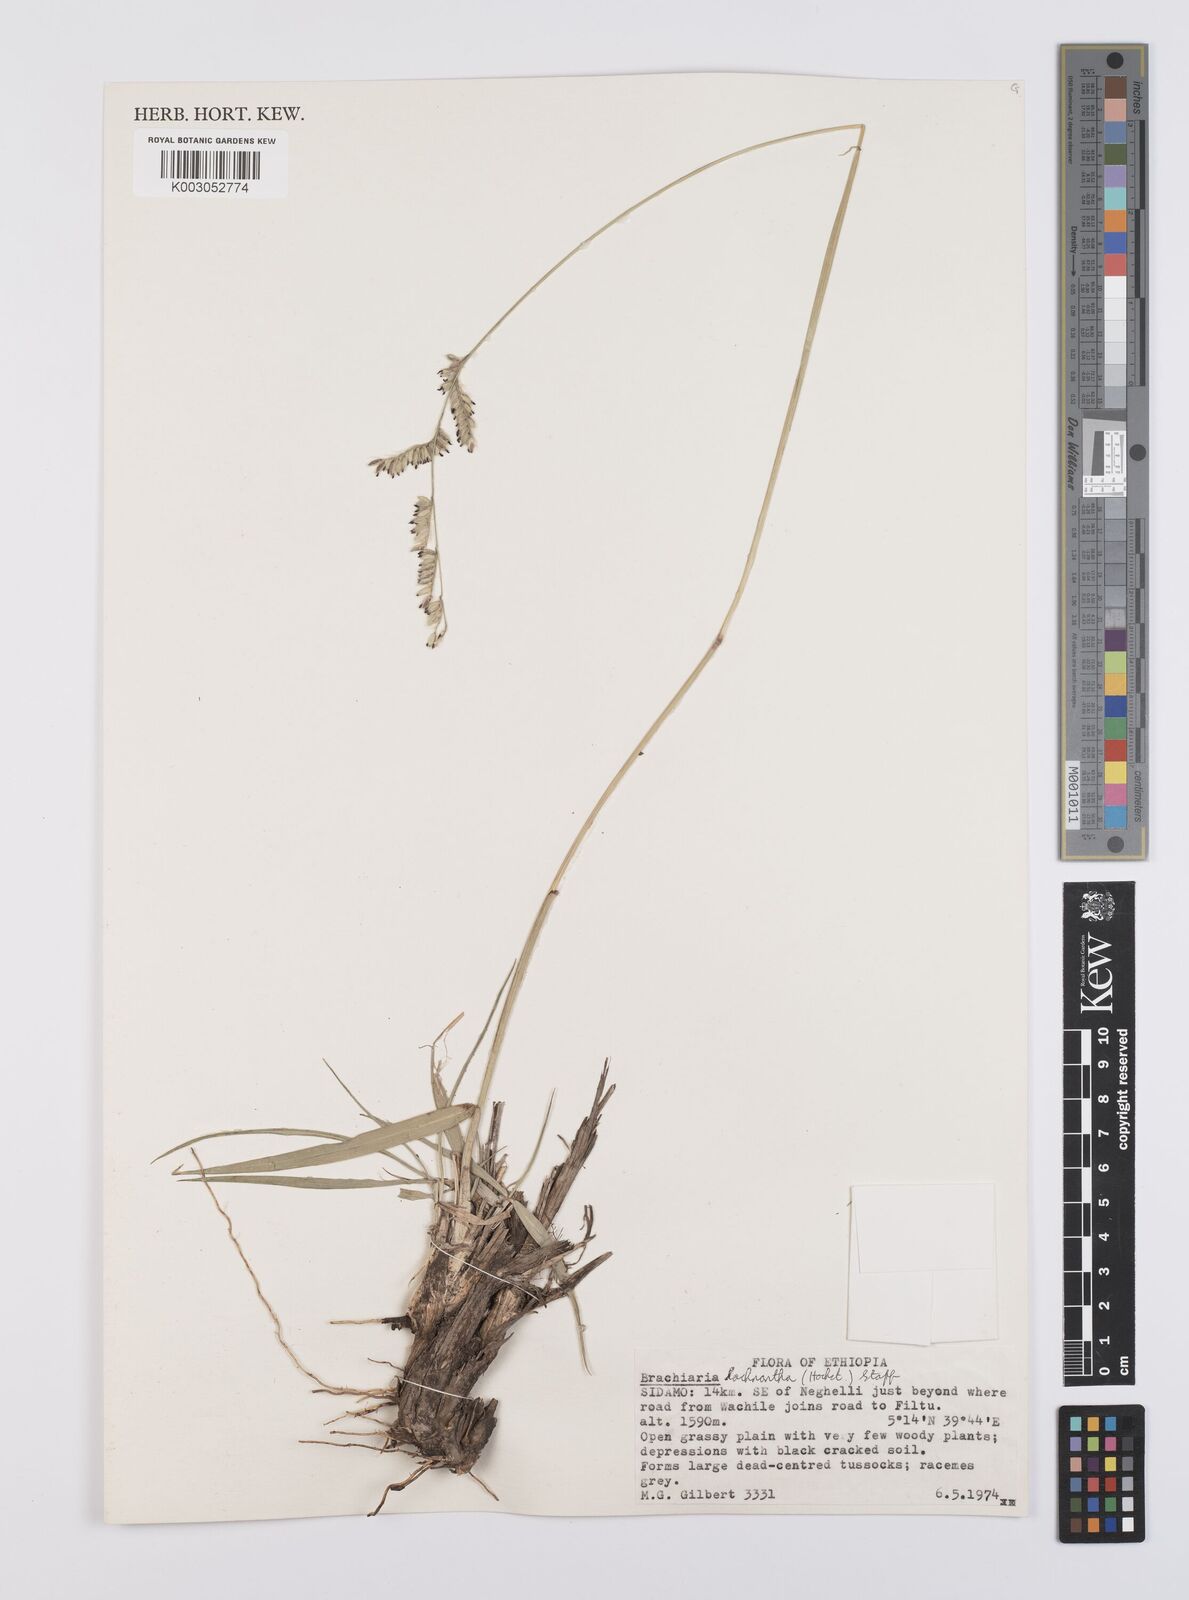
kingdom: Plantae
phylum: Tracheophyta
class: Liliopsida
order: Poales
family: Poaceae
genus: Urochloa
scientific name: Urochloa lachnantha
